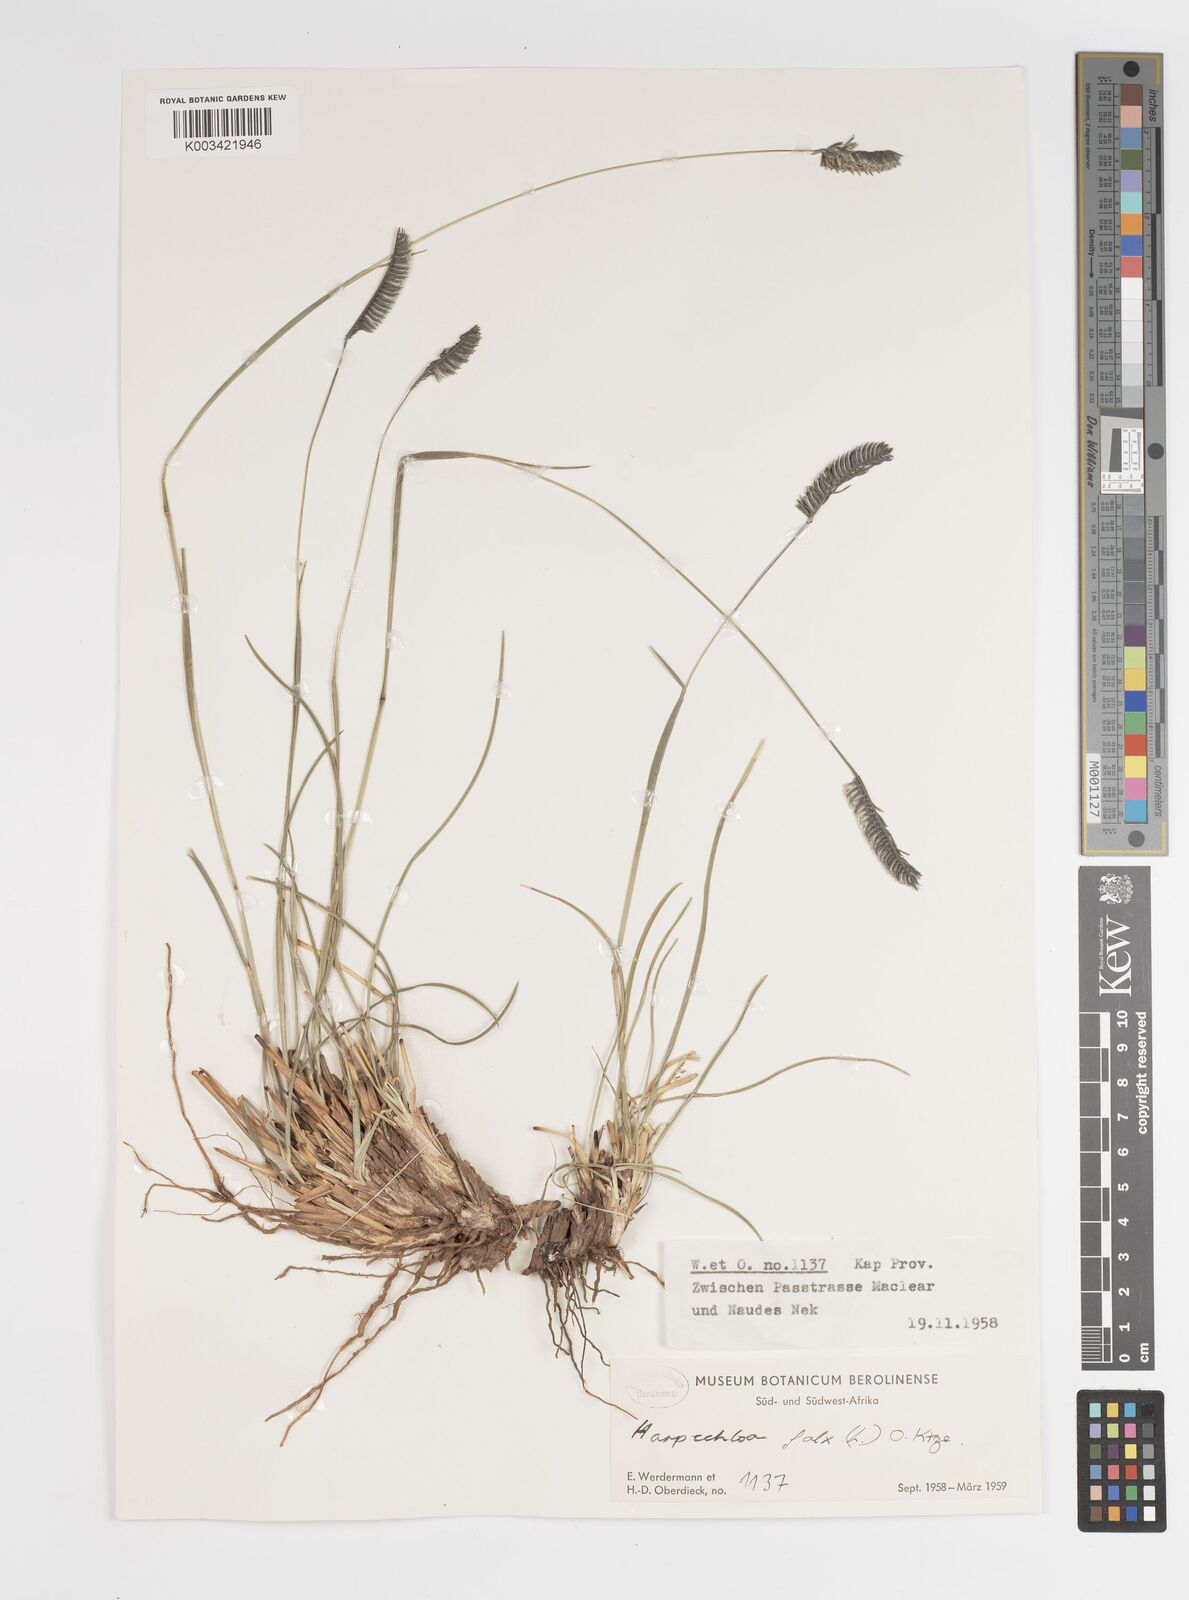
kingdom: Plantae
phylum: Tracheophyta
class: Liliopsida
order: Poales
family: Poaceae
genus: Harpochloa
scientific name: Harpochloa falx
